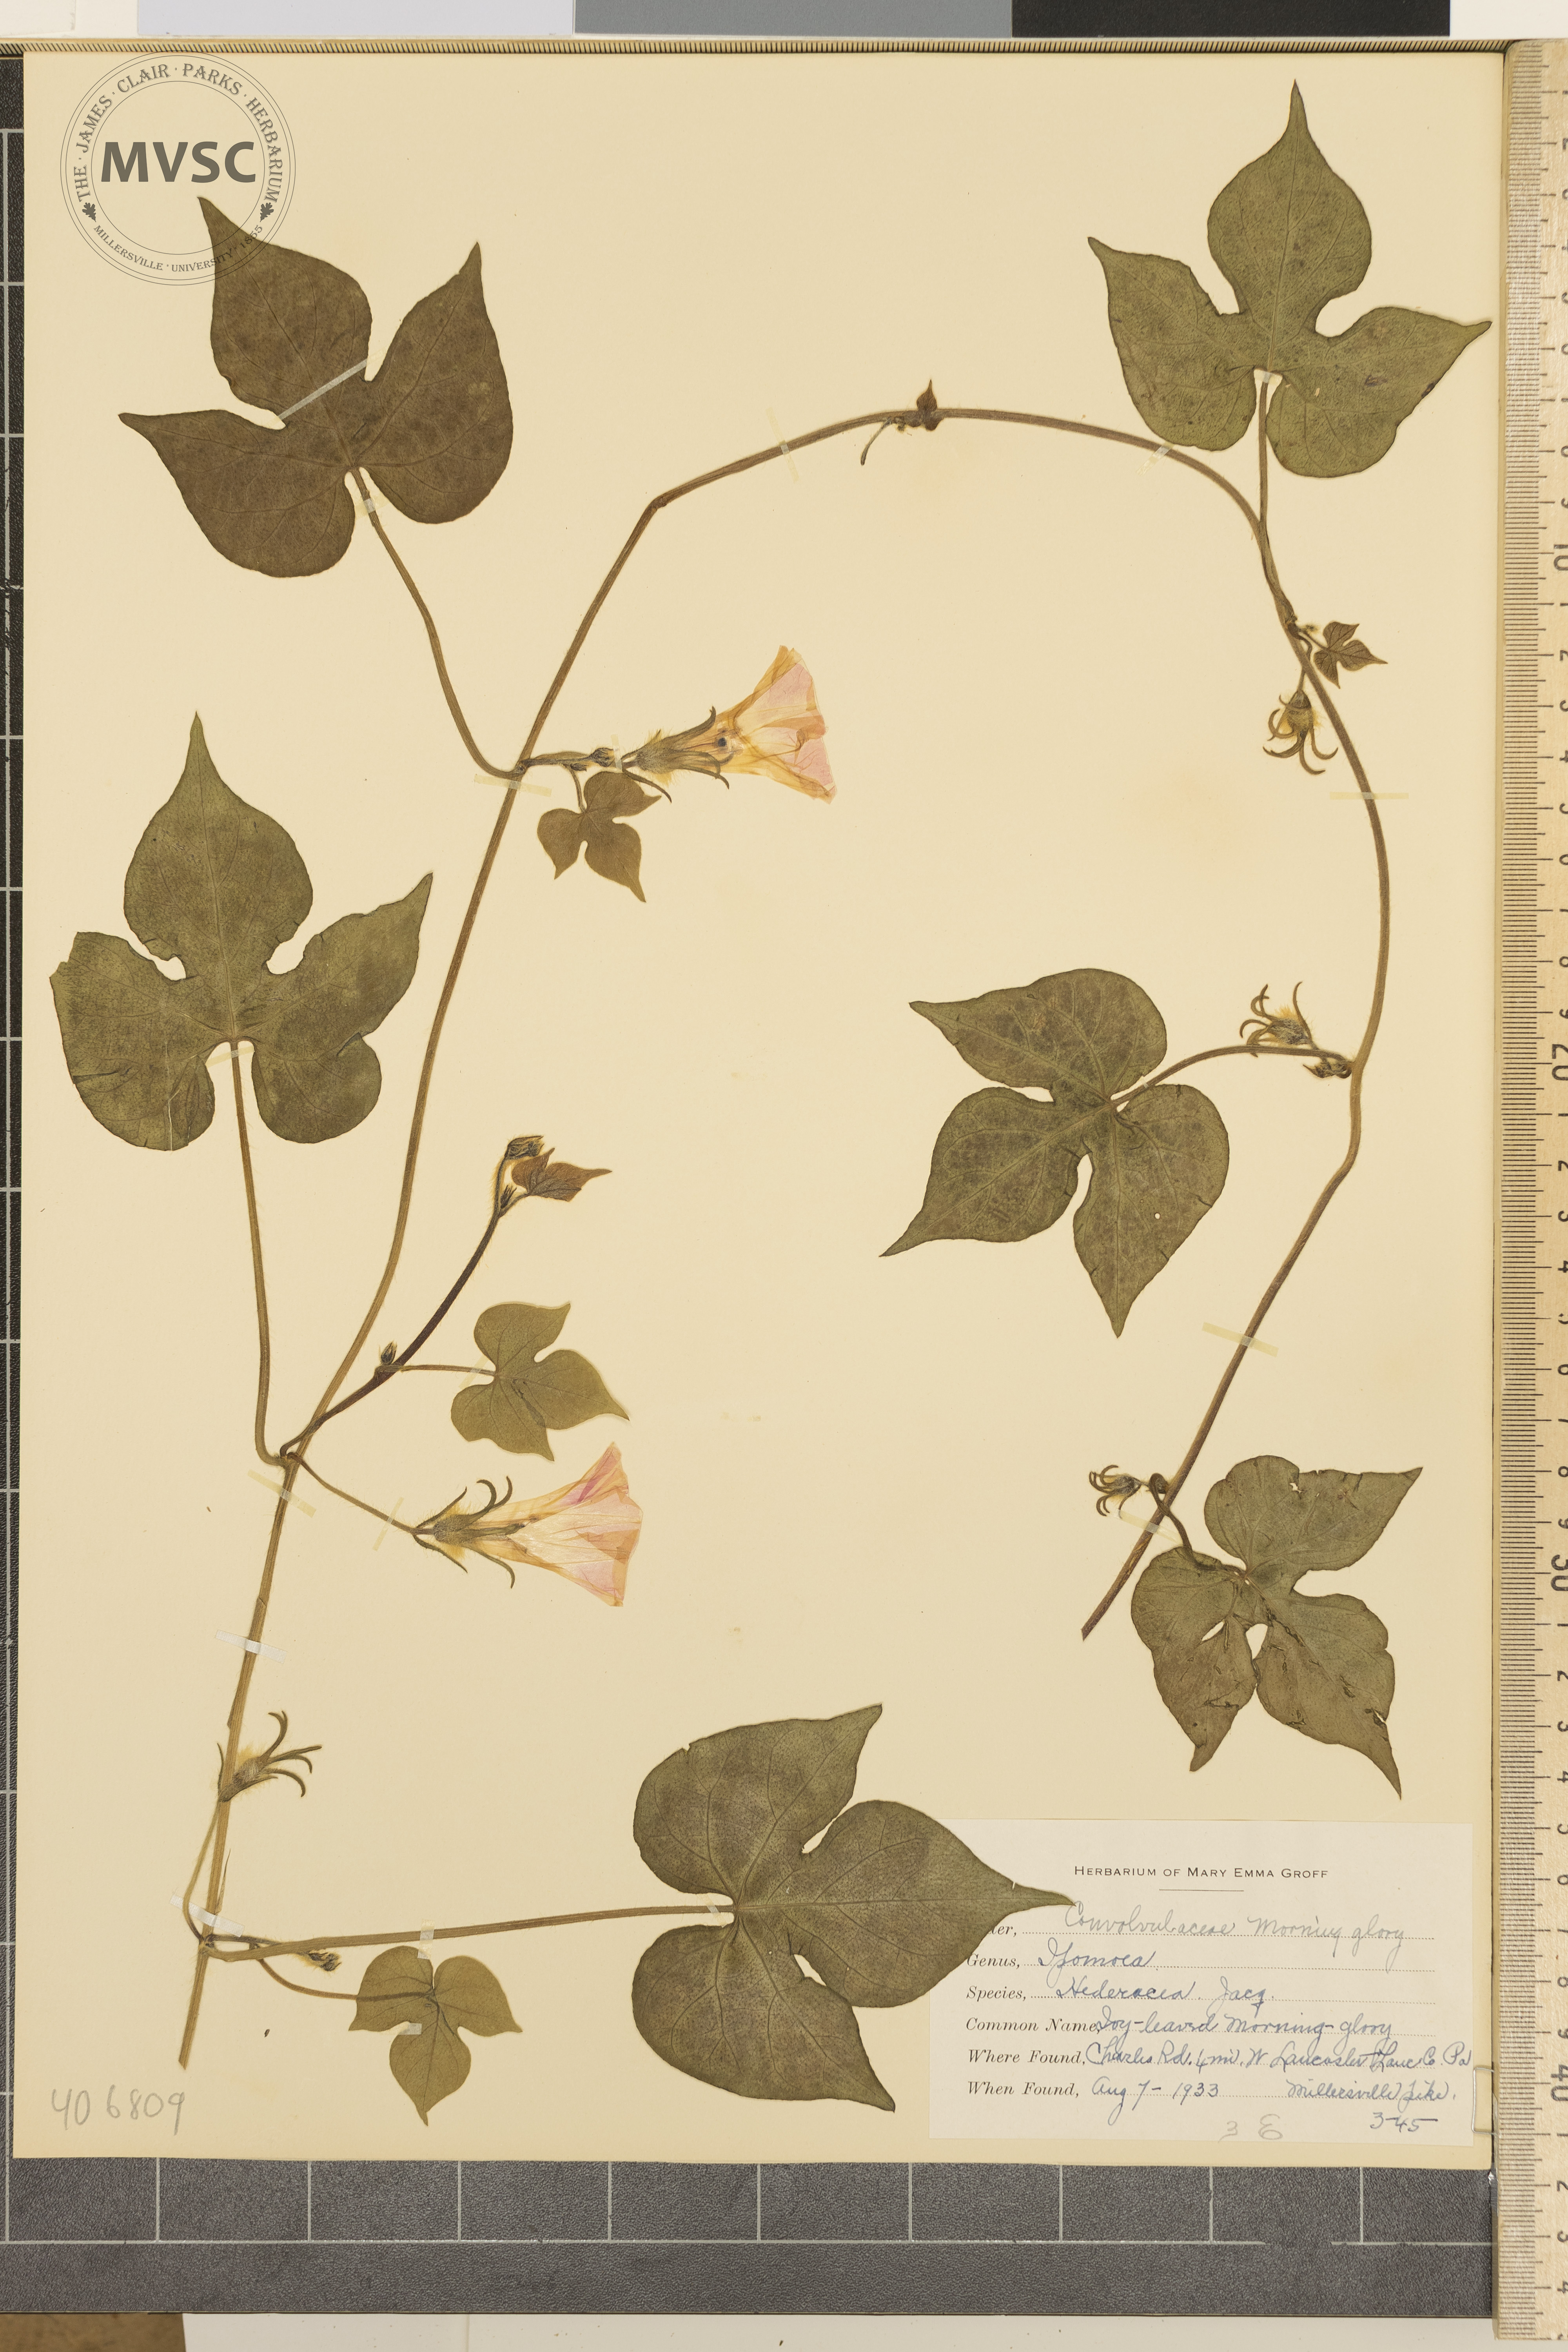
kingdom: Plantae
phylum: Tracheophyta
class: Magnoliopsida
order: Solanales
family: Convolvulaceae
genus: Ipomoea
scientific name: Ipomoea hederacea
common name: ivy-leaved morning glory
